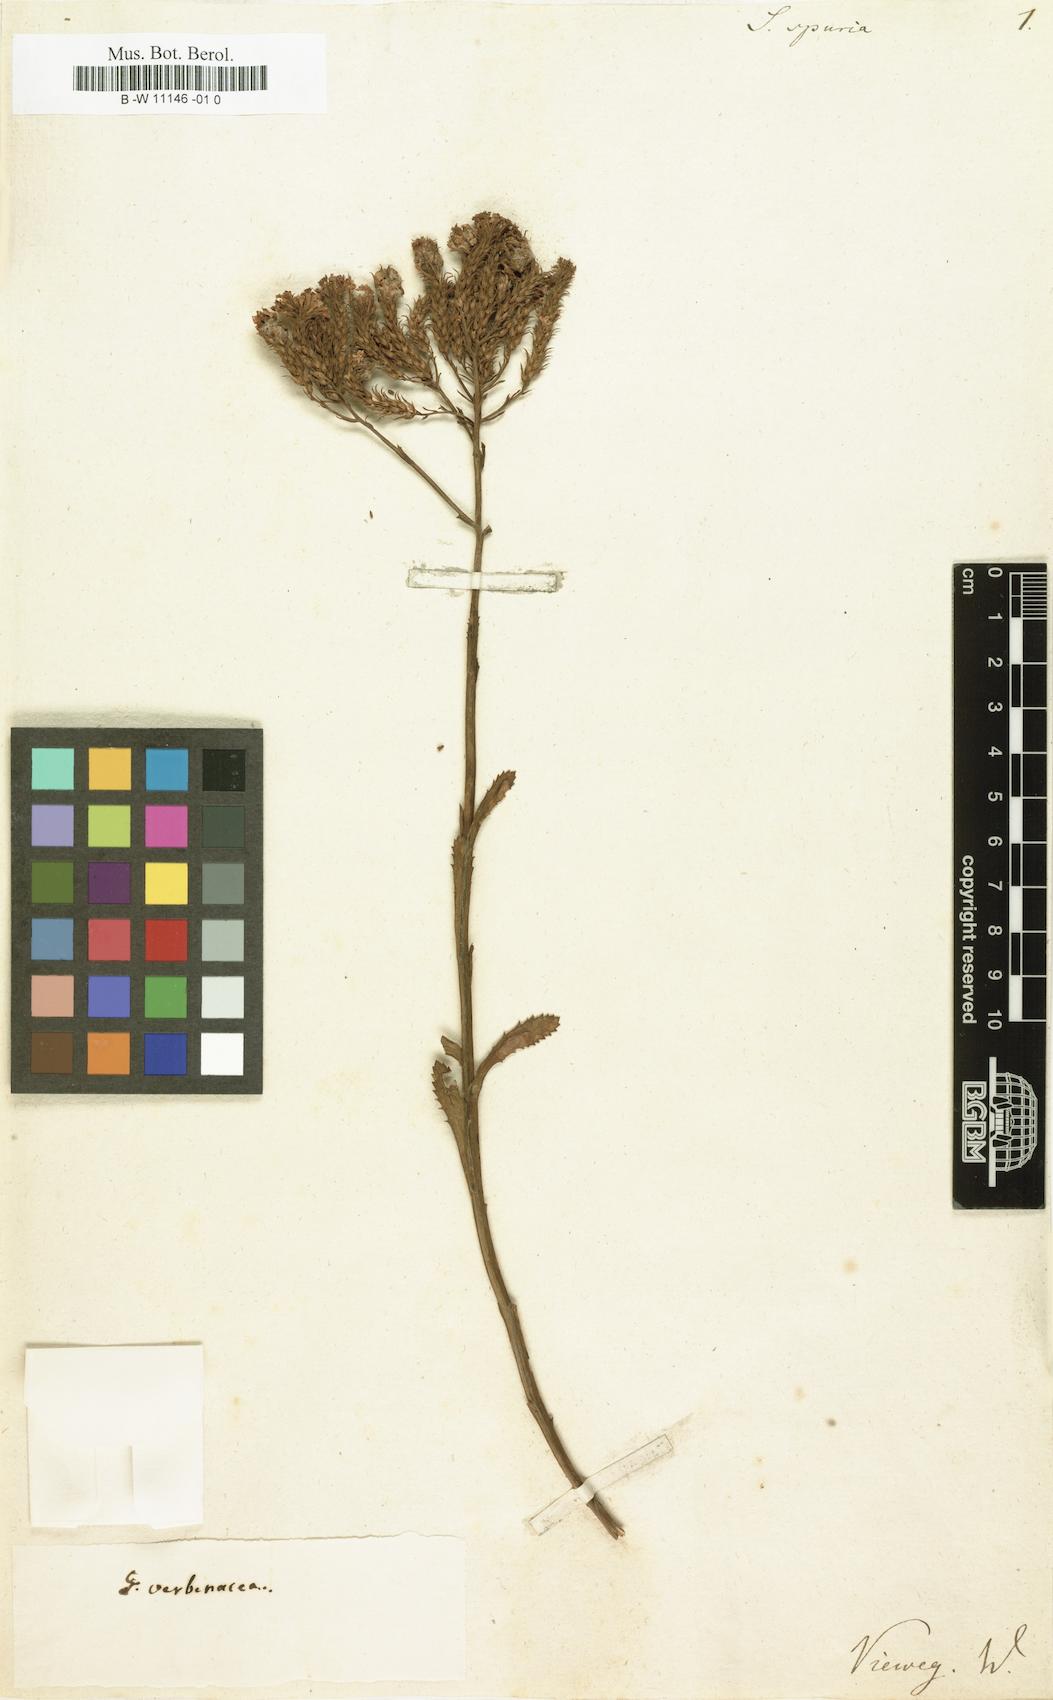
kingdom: Plantae
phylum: Tracheophyta
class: Magnoliopsida
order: Lamiales
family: Scrophulariaceae
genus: Pseudoselago
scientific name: Pseudoselago spuria
